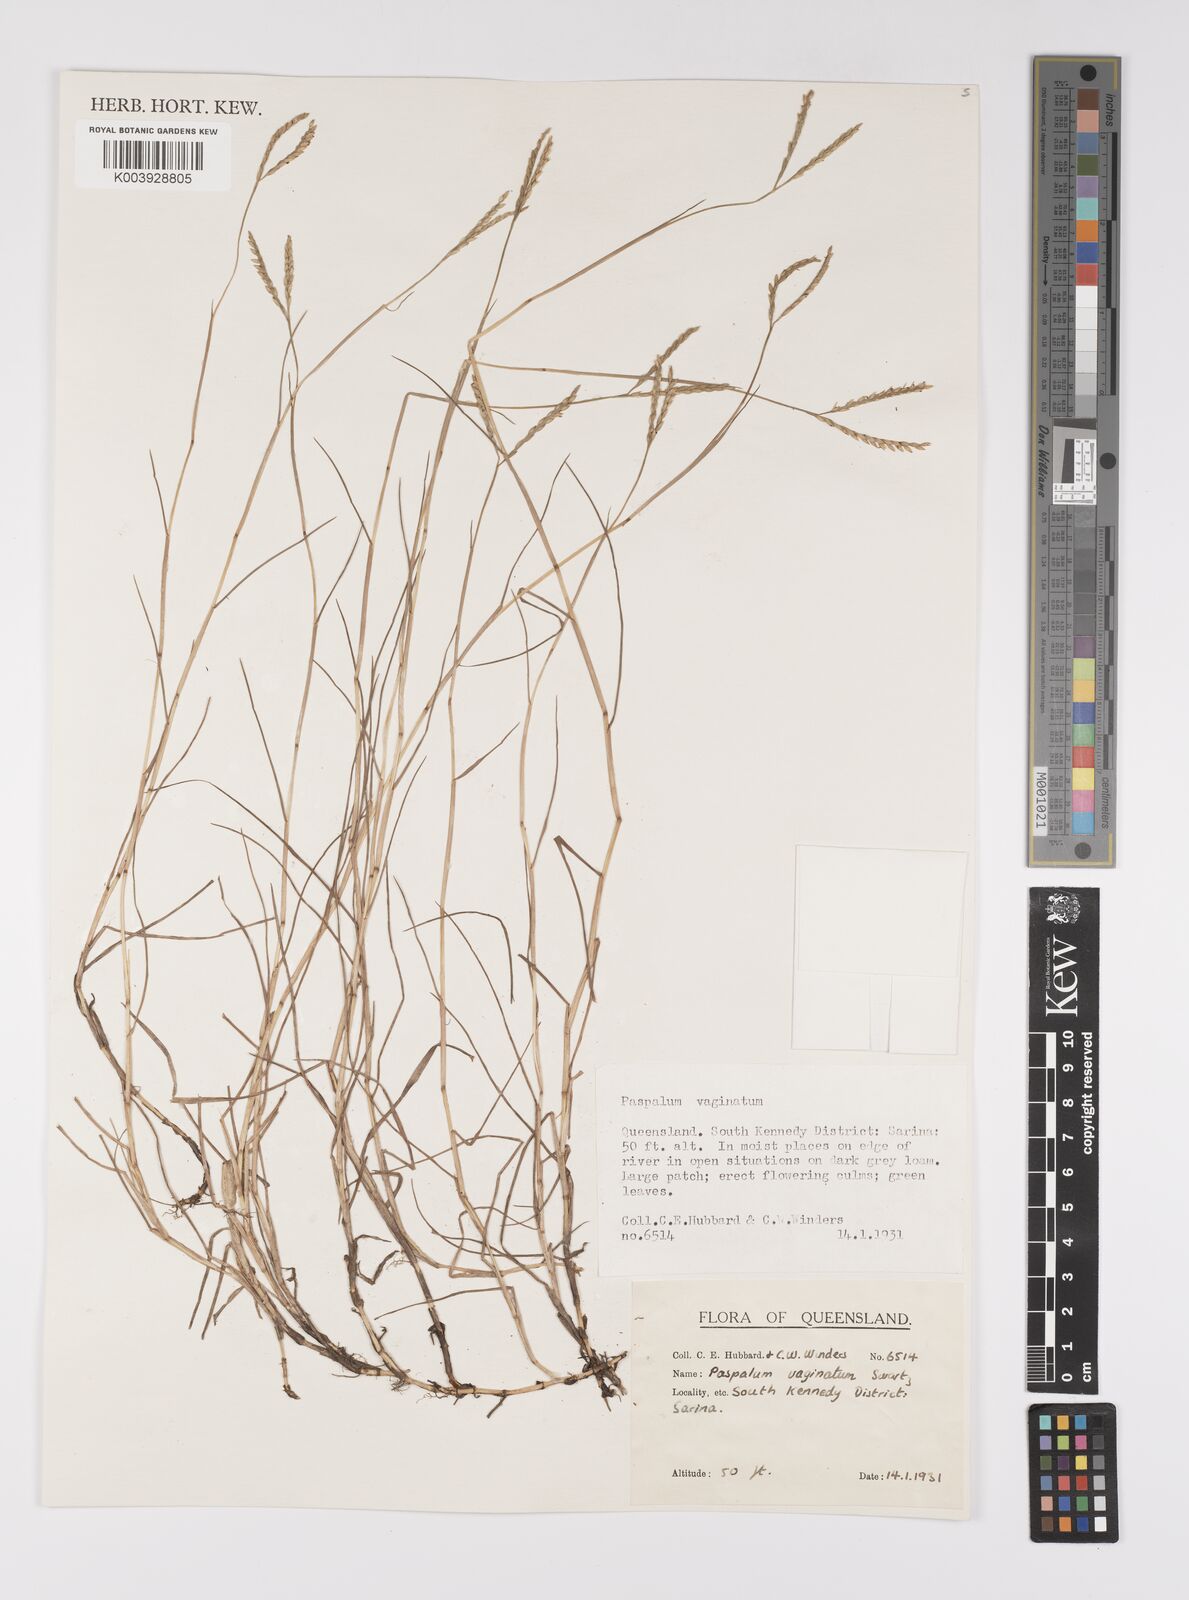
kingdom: Plantae
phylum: Tracheophyta
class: Liliopsida
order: Poales
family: Poaceae
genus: Paspalum
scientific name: Paspalum vaginatum
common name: Seashore paspalum
